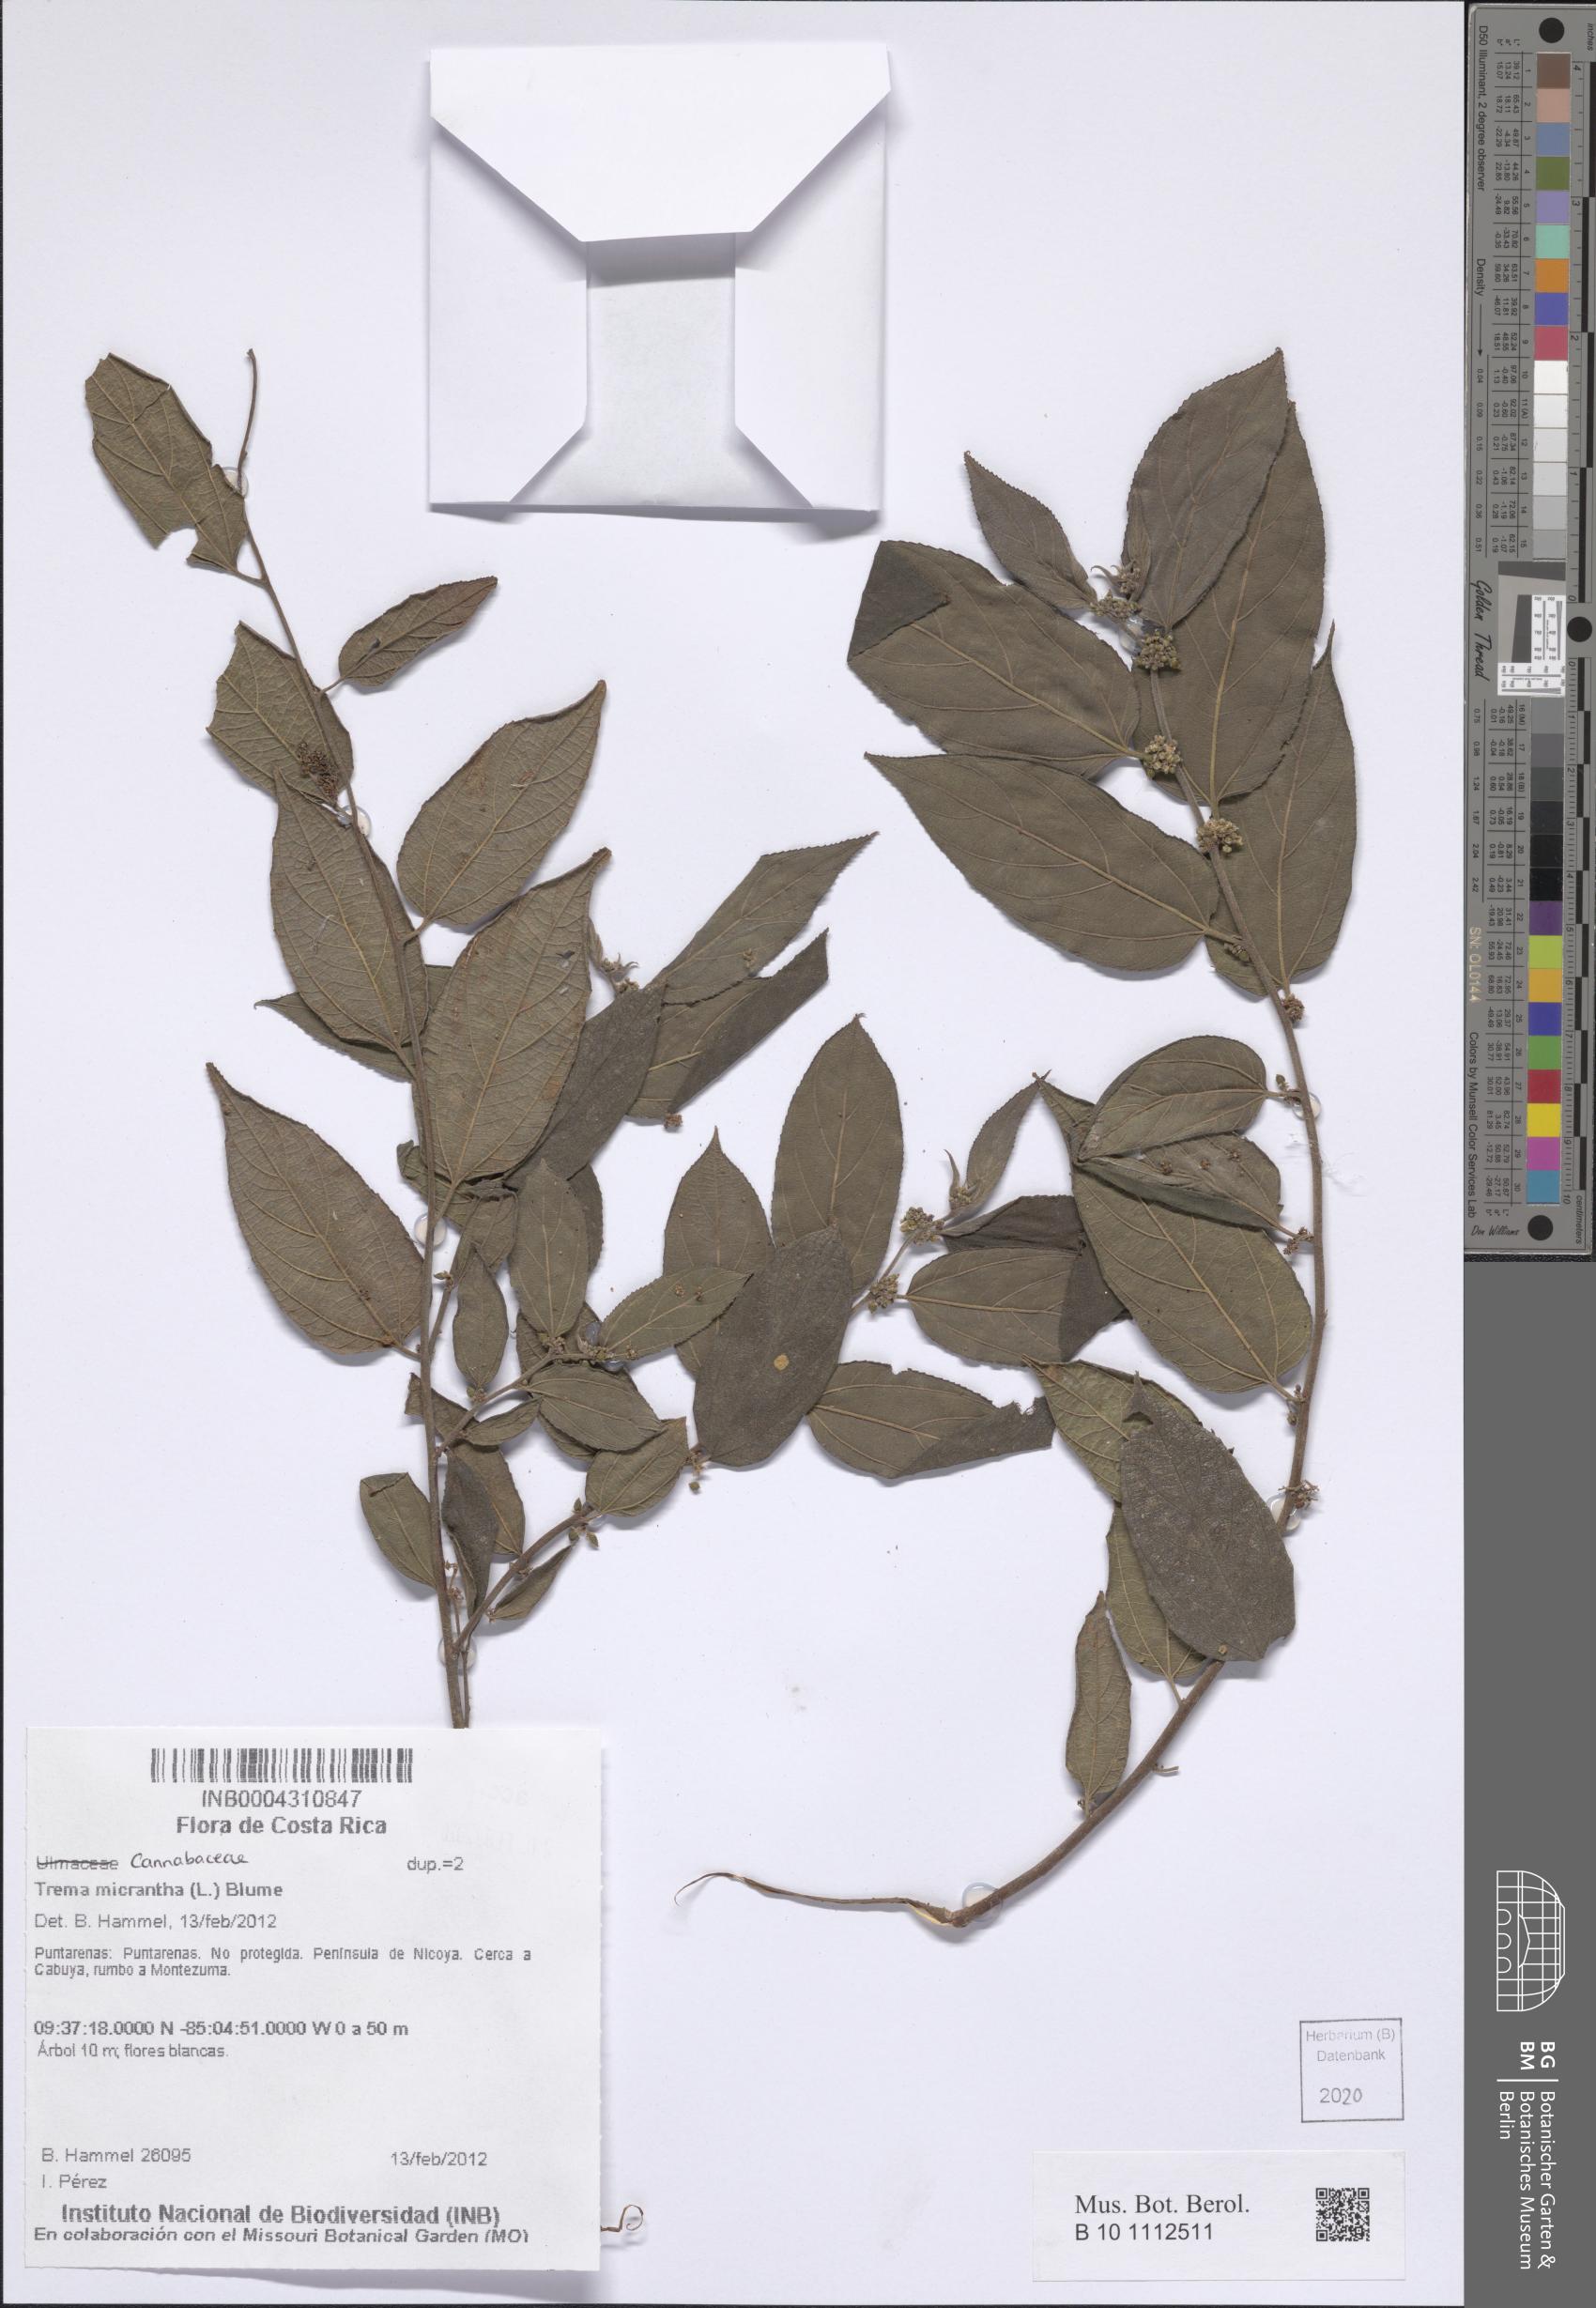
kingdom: Plantae
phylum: Tracheophyta
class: Magnoliopsida
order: Rosales
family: Cannabaceae
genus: Trema
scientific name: Trema micranthum
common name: Jamaican nettletree
